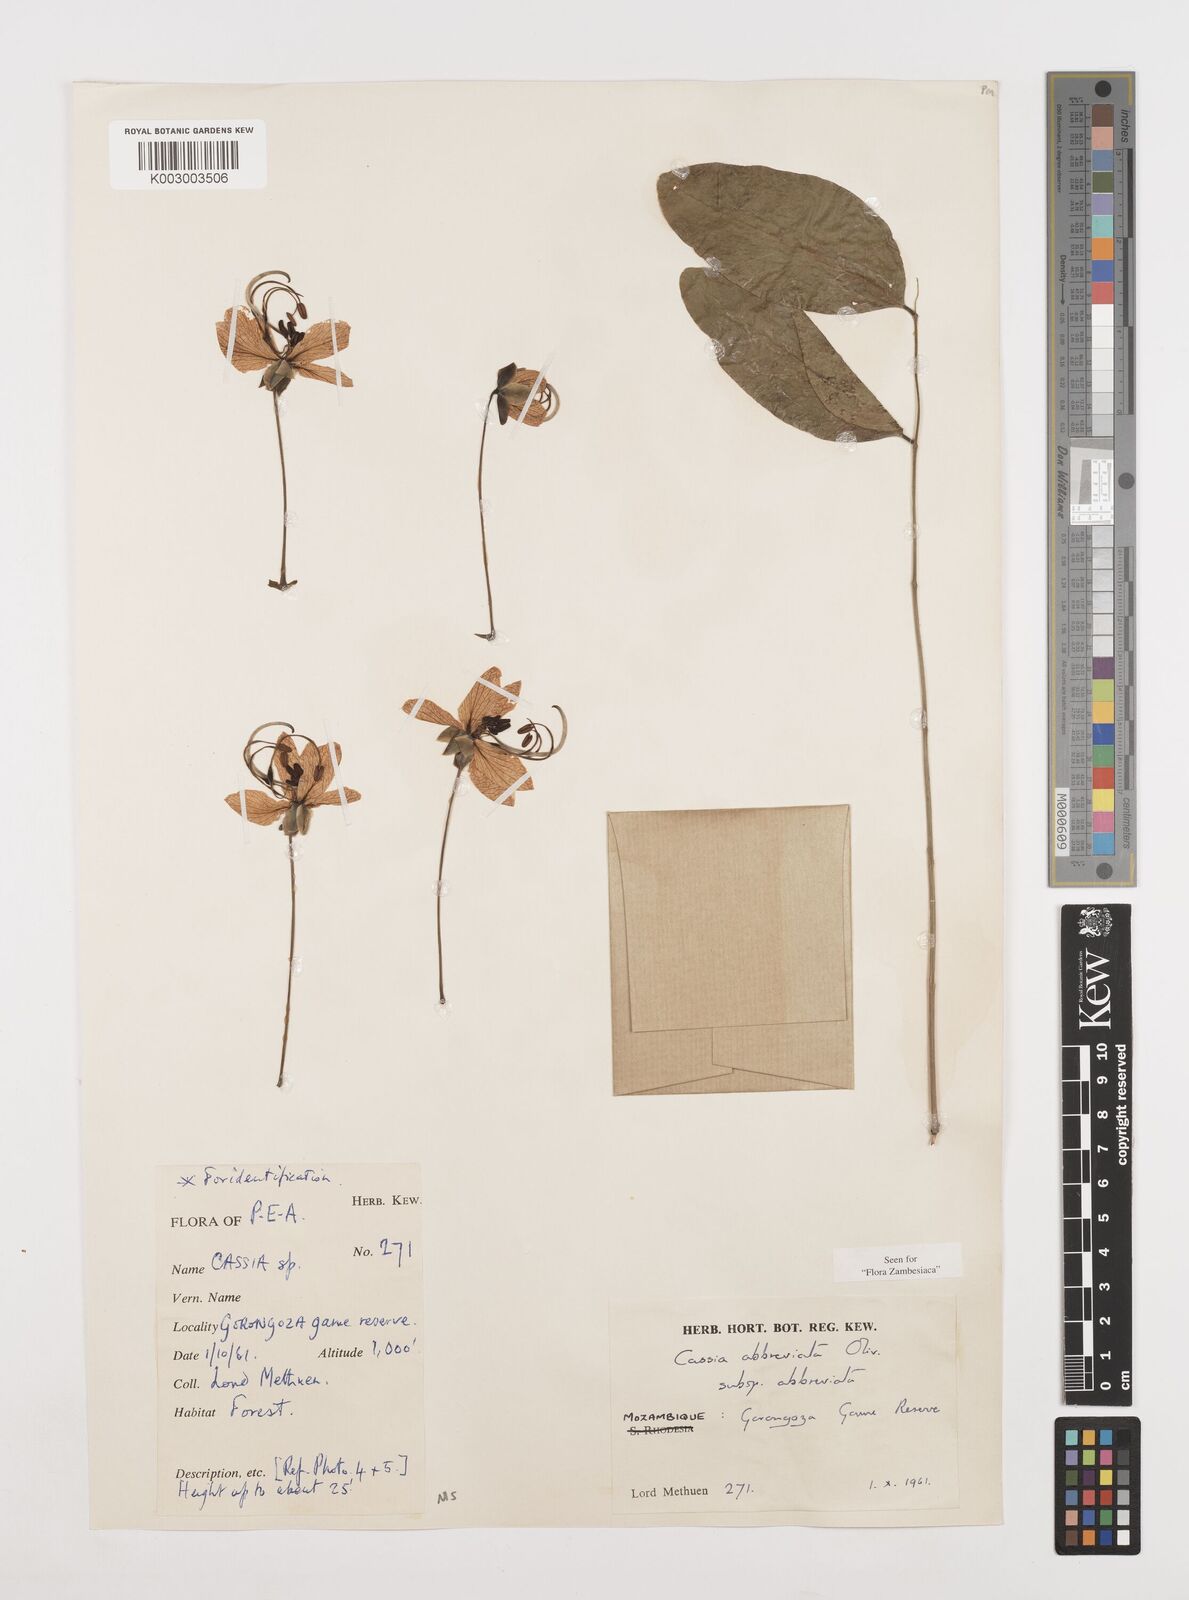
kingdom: Plantae
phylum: Tracheophyta
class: Magnoliopsida
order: Fabales
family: Fabaceae
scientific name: Fabaceae
